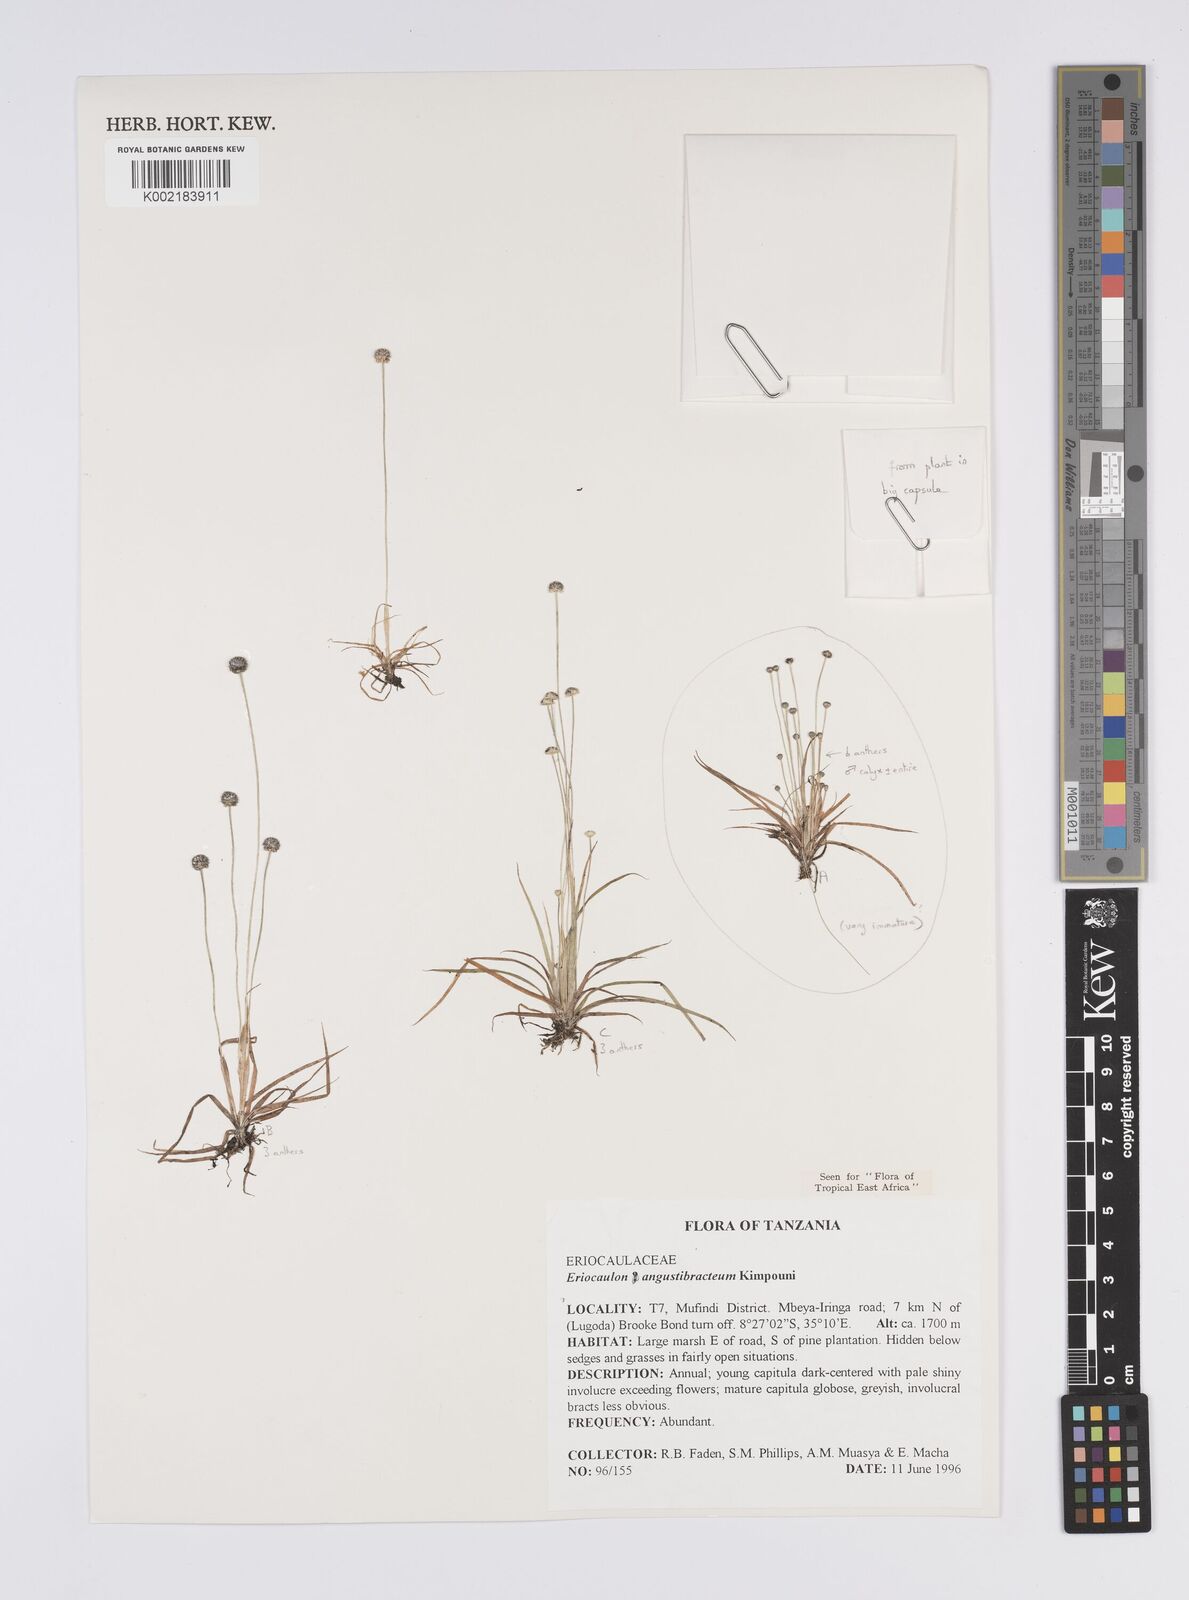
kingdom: Plantae
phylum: Tracheophyta
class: Liliopsida
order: Poales
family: Eriocaulaceae
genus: Eriocaulon
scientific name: Eriocaulon angustibracteum
